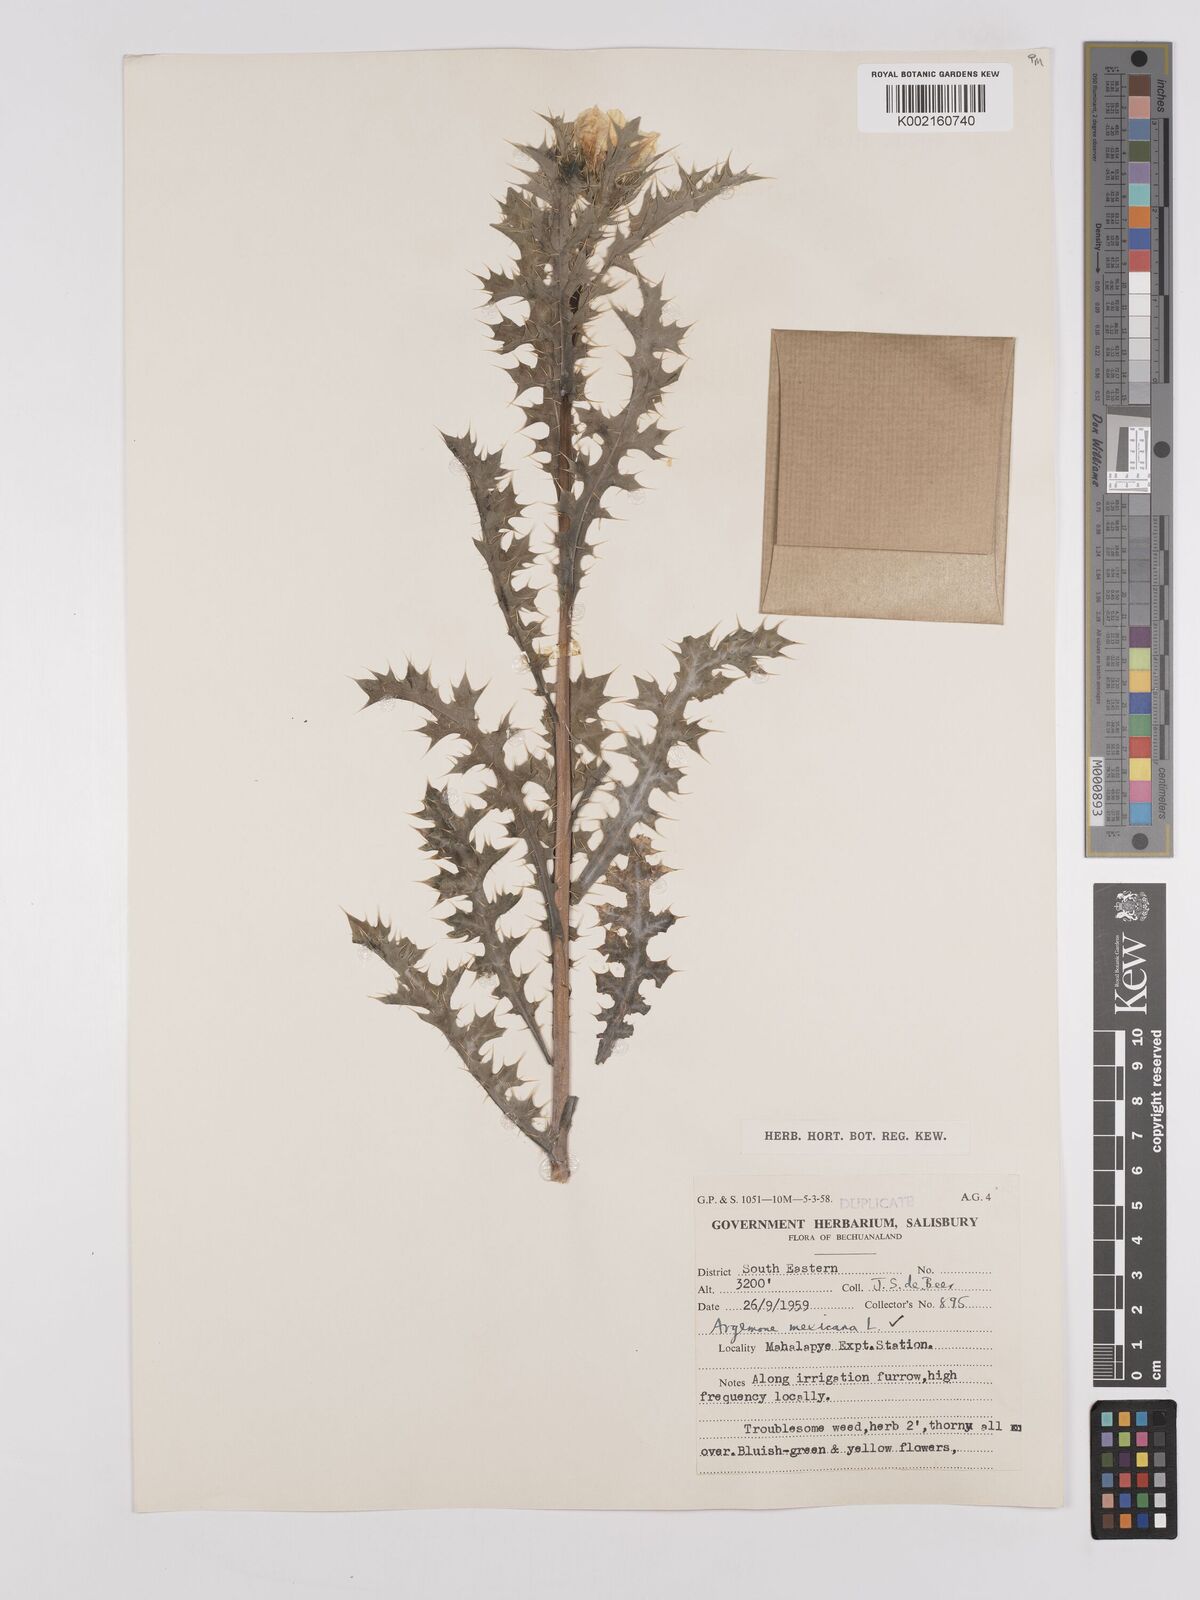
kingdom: Plantae
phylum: Tracheophyta
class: Magnoliopsida
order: Ranunculales
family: Papaveraceae
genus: Argemone
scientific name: Argemone mexicana
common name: Mexican poppy
